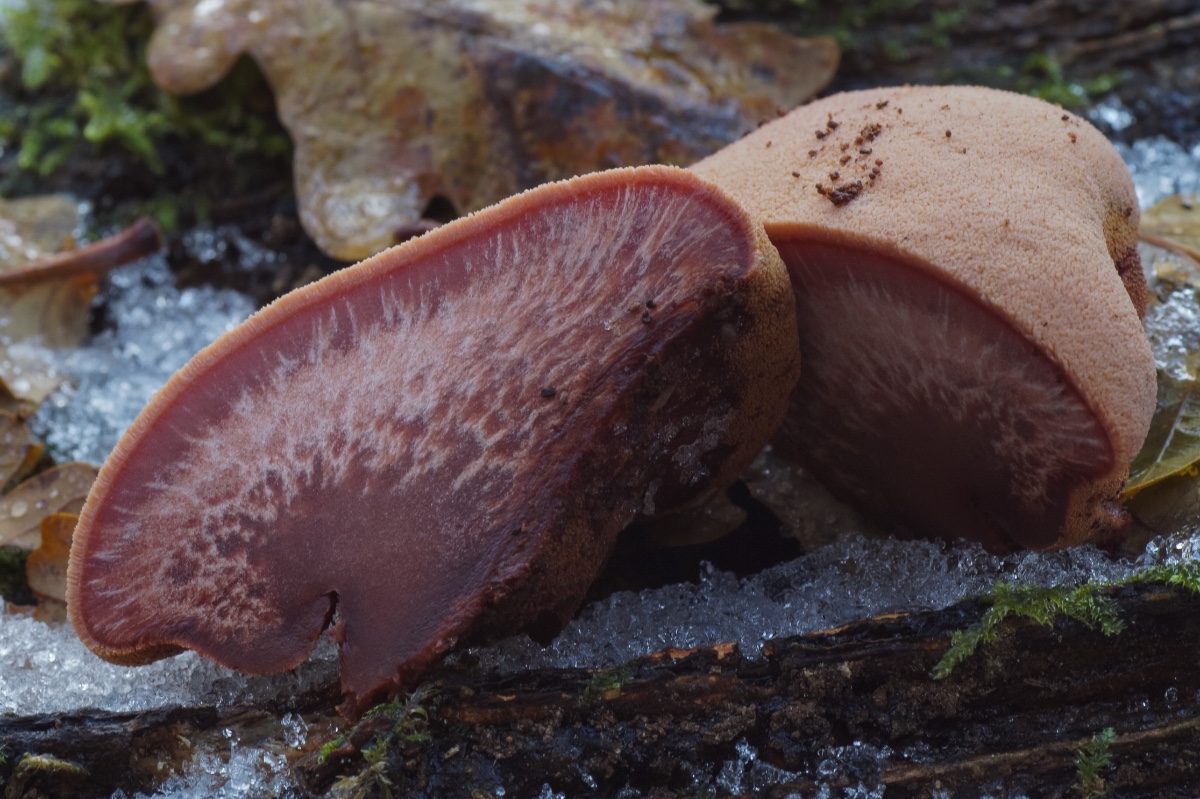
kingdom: Fungi
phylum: Basidiomycota
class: Agaricomycetes
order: Agaricales
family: Fistulinaceae
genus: Fistulina
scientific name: Fistulina hepatica
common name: oksetunge
